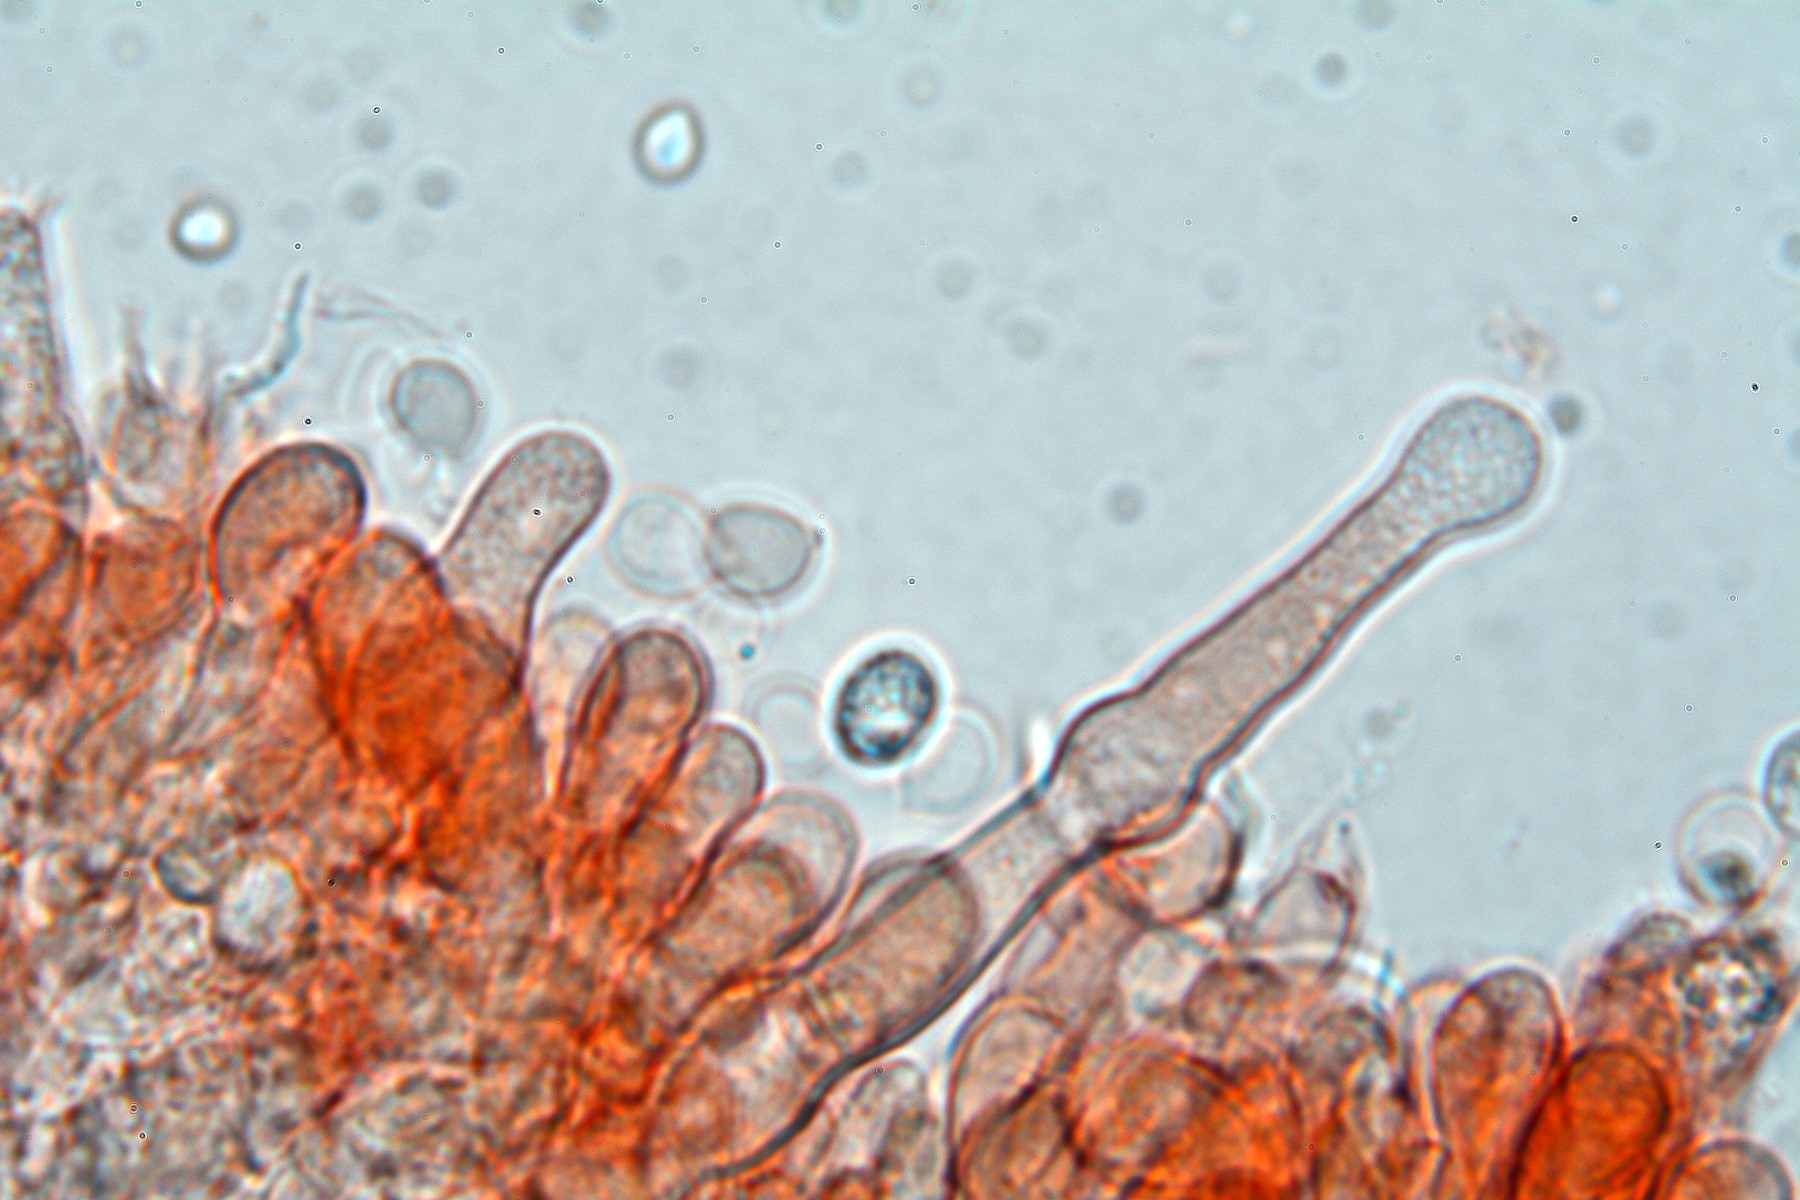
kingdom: Fungi
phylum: Basidiomycota
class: Agaricomycetes
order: Hymenochaetales
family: Hyphodontiaceae
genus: Hyphodontia
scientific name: Hyphodontia arguta
